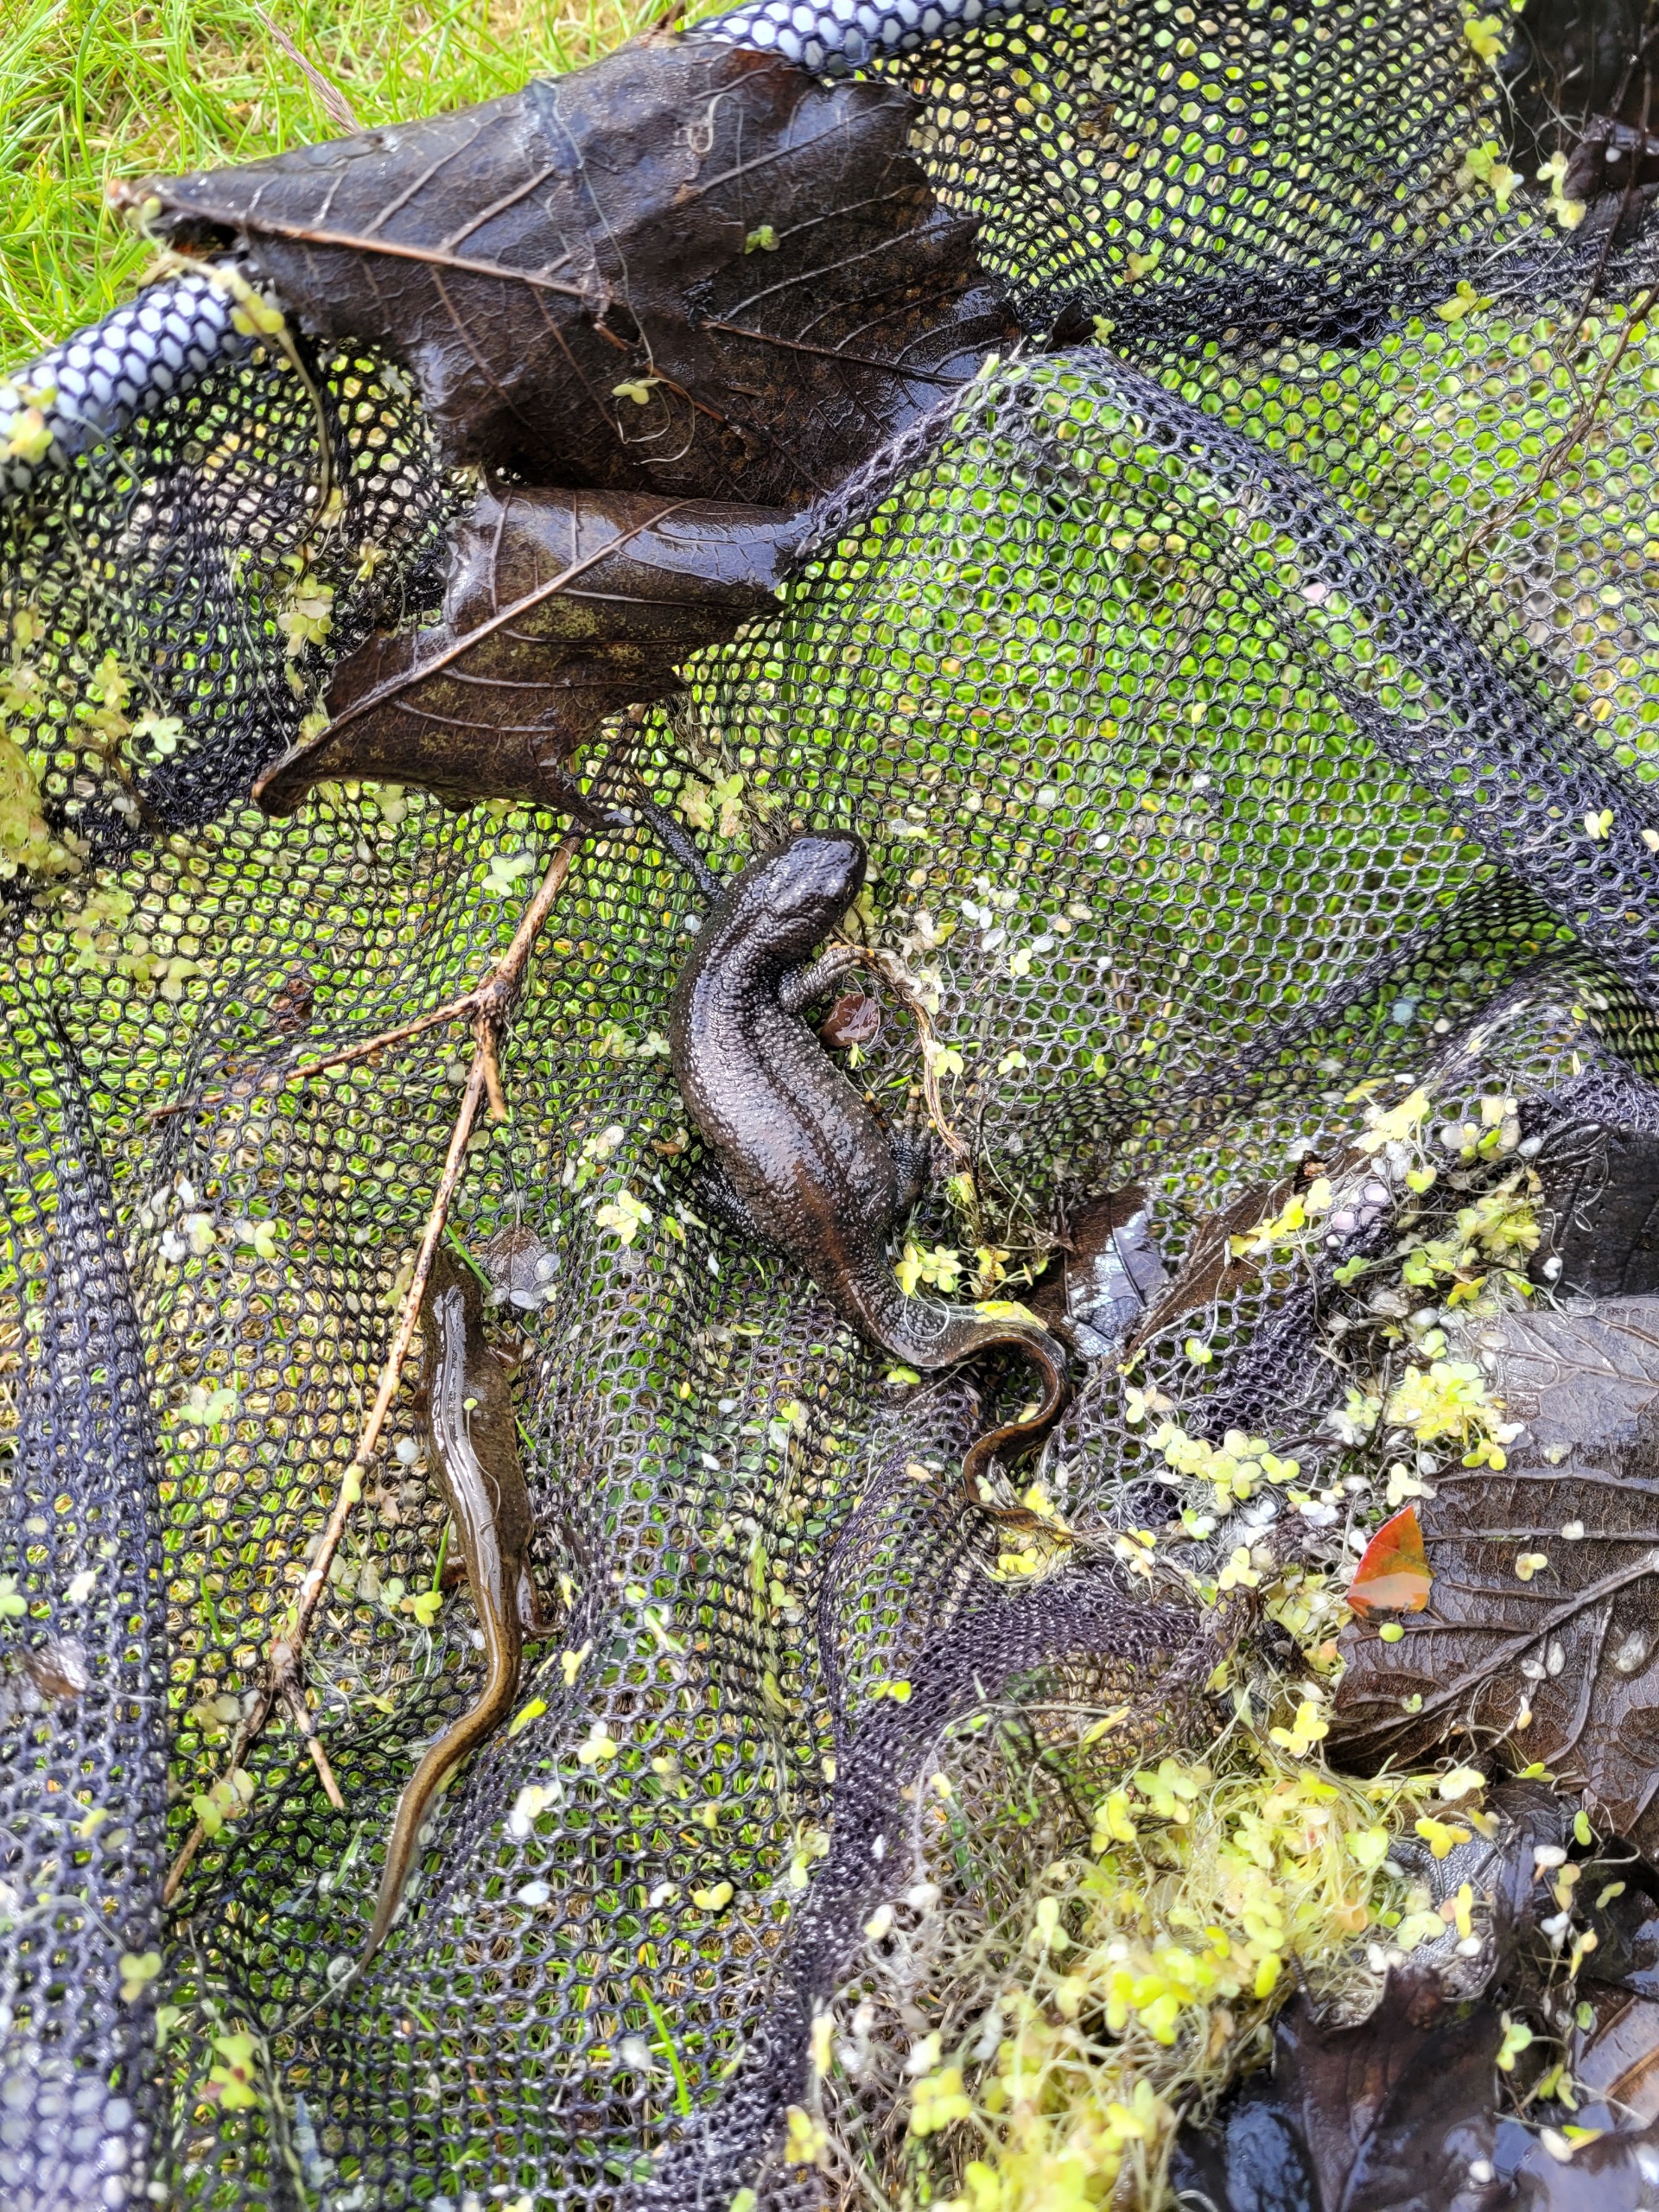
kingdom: Animalia
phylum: Chordata
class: Amphibia
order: Caudata
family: Salamandridae
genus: Triturus
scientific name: Triturus cristatus
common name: Stor vandsalamander
